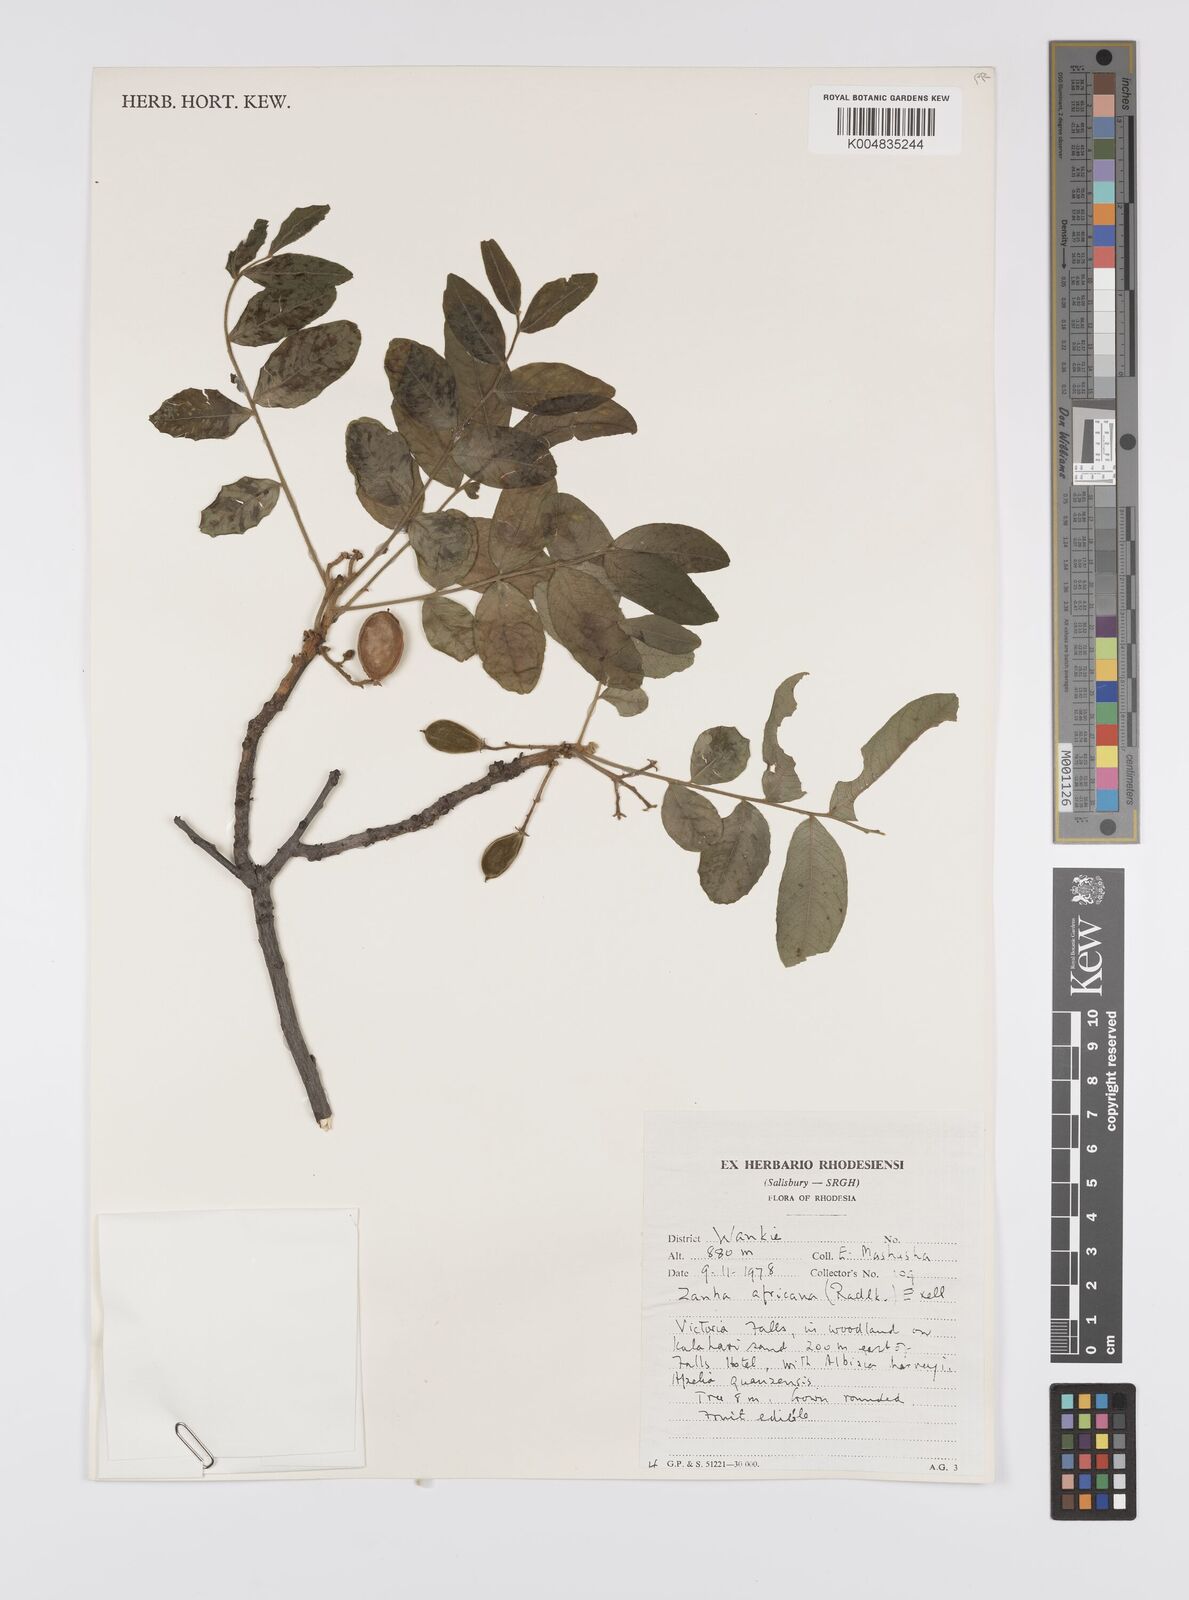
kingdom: Plantae
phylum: Tracheophyta
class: Magnoliopsida
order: Sapindales
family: Sapindaceae
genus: Zanha
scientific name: Zanha africana
